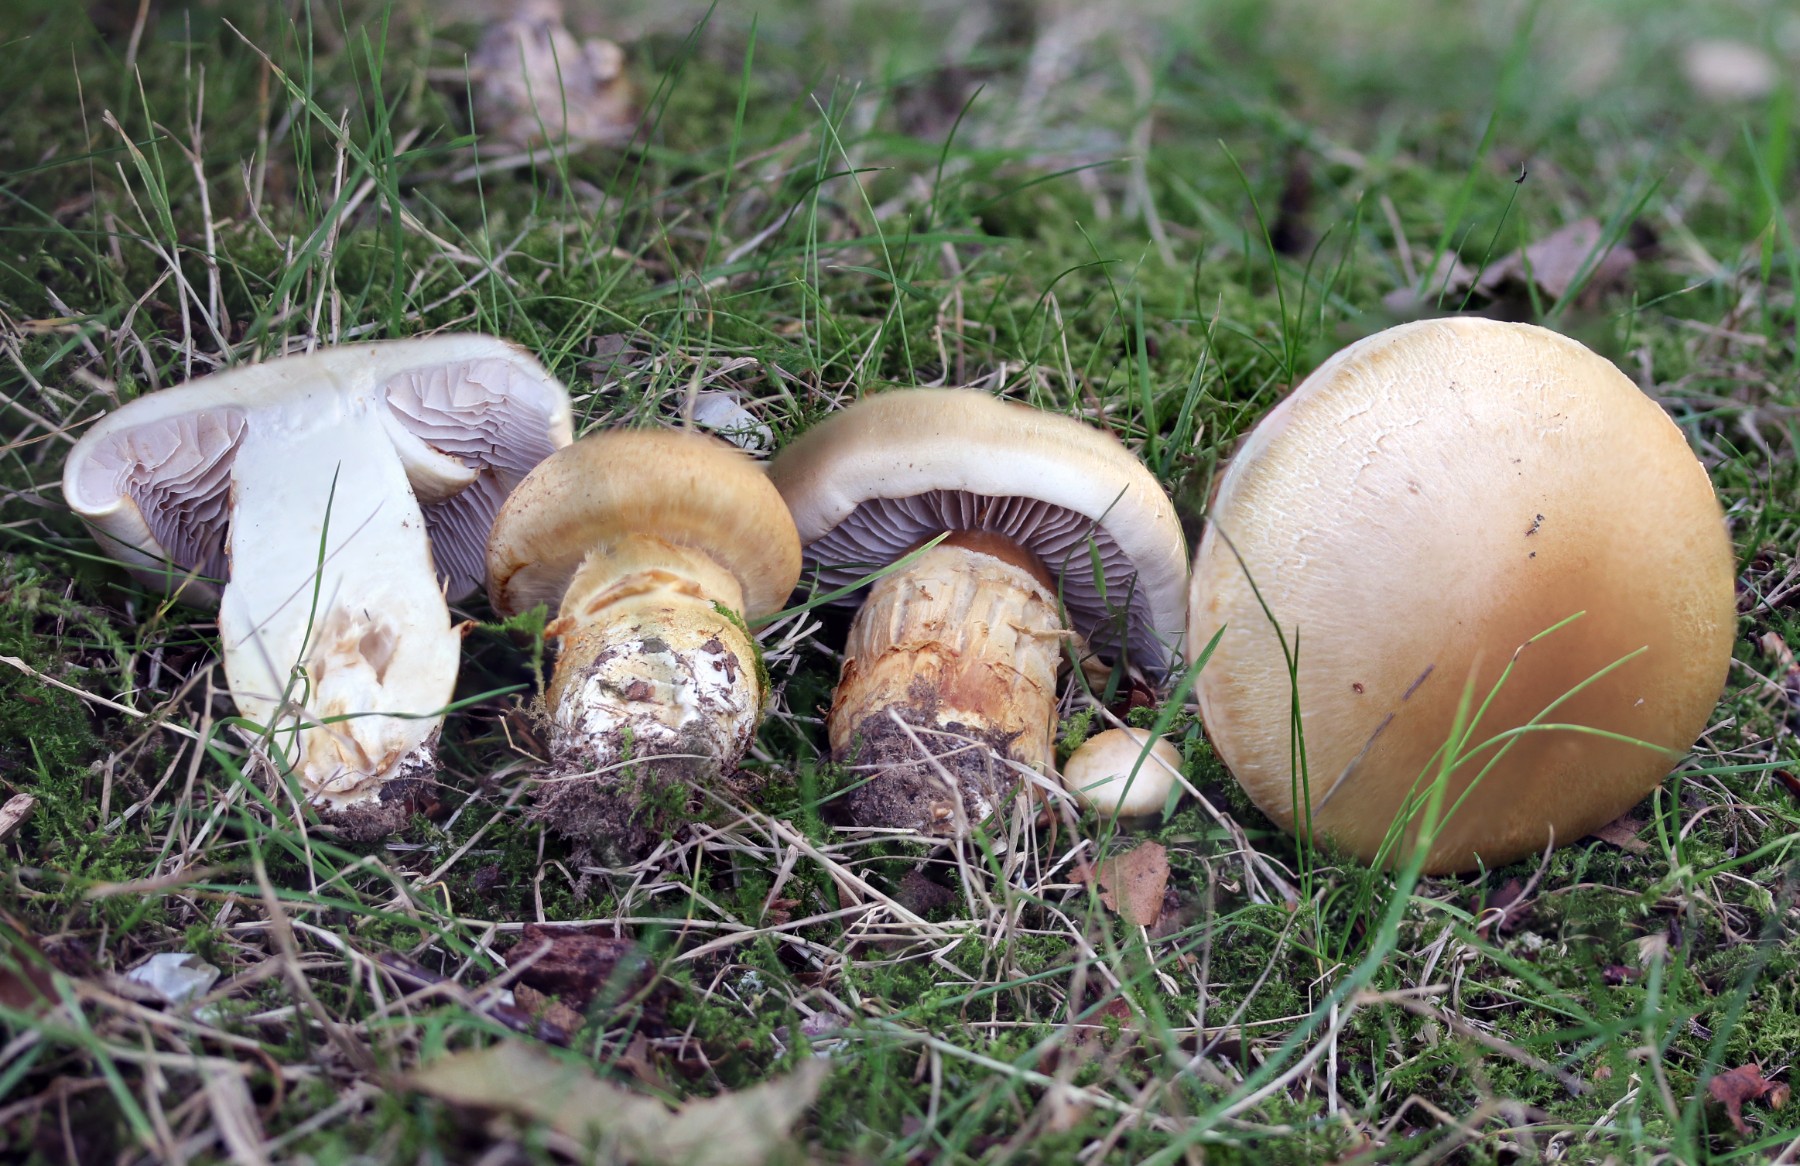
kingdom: Fungi
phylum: Basidiomycota
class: Agaricomycetes
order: Agaricales
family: Cortinariaceae
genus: Phlegmacium
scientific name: Phlegmacium triumphans
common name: gulbæltet slørhat
